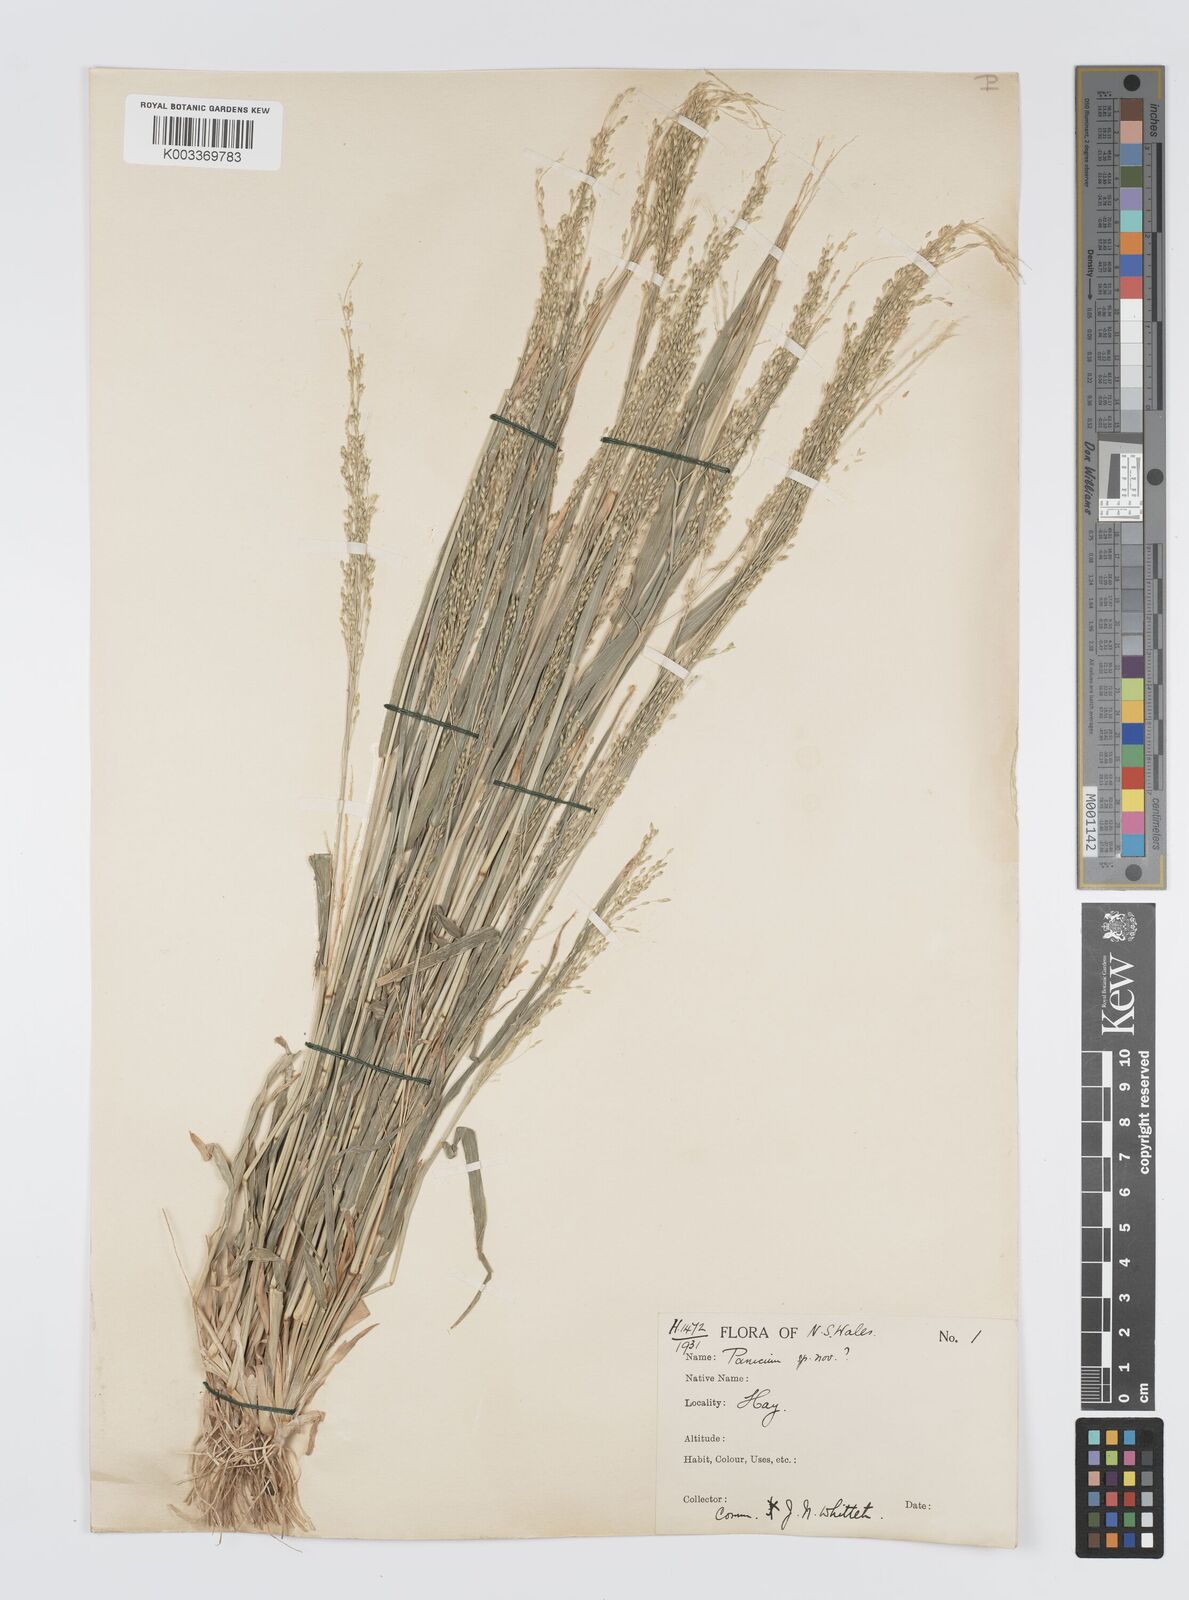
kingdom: Plantae
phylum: Tracheophyta
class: Liliopsida
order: Poales
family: Poaceae
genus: Panicum
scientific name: Panicum laevinode
